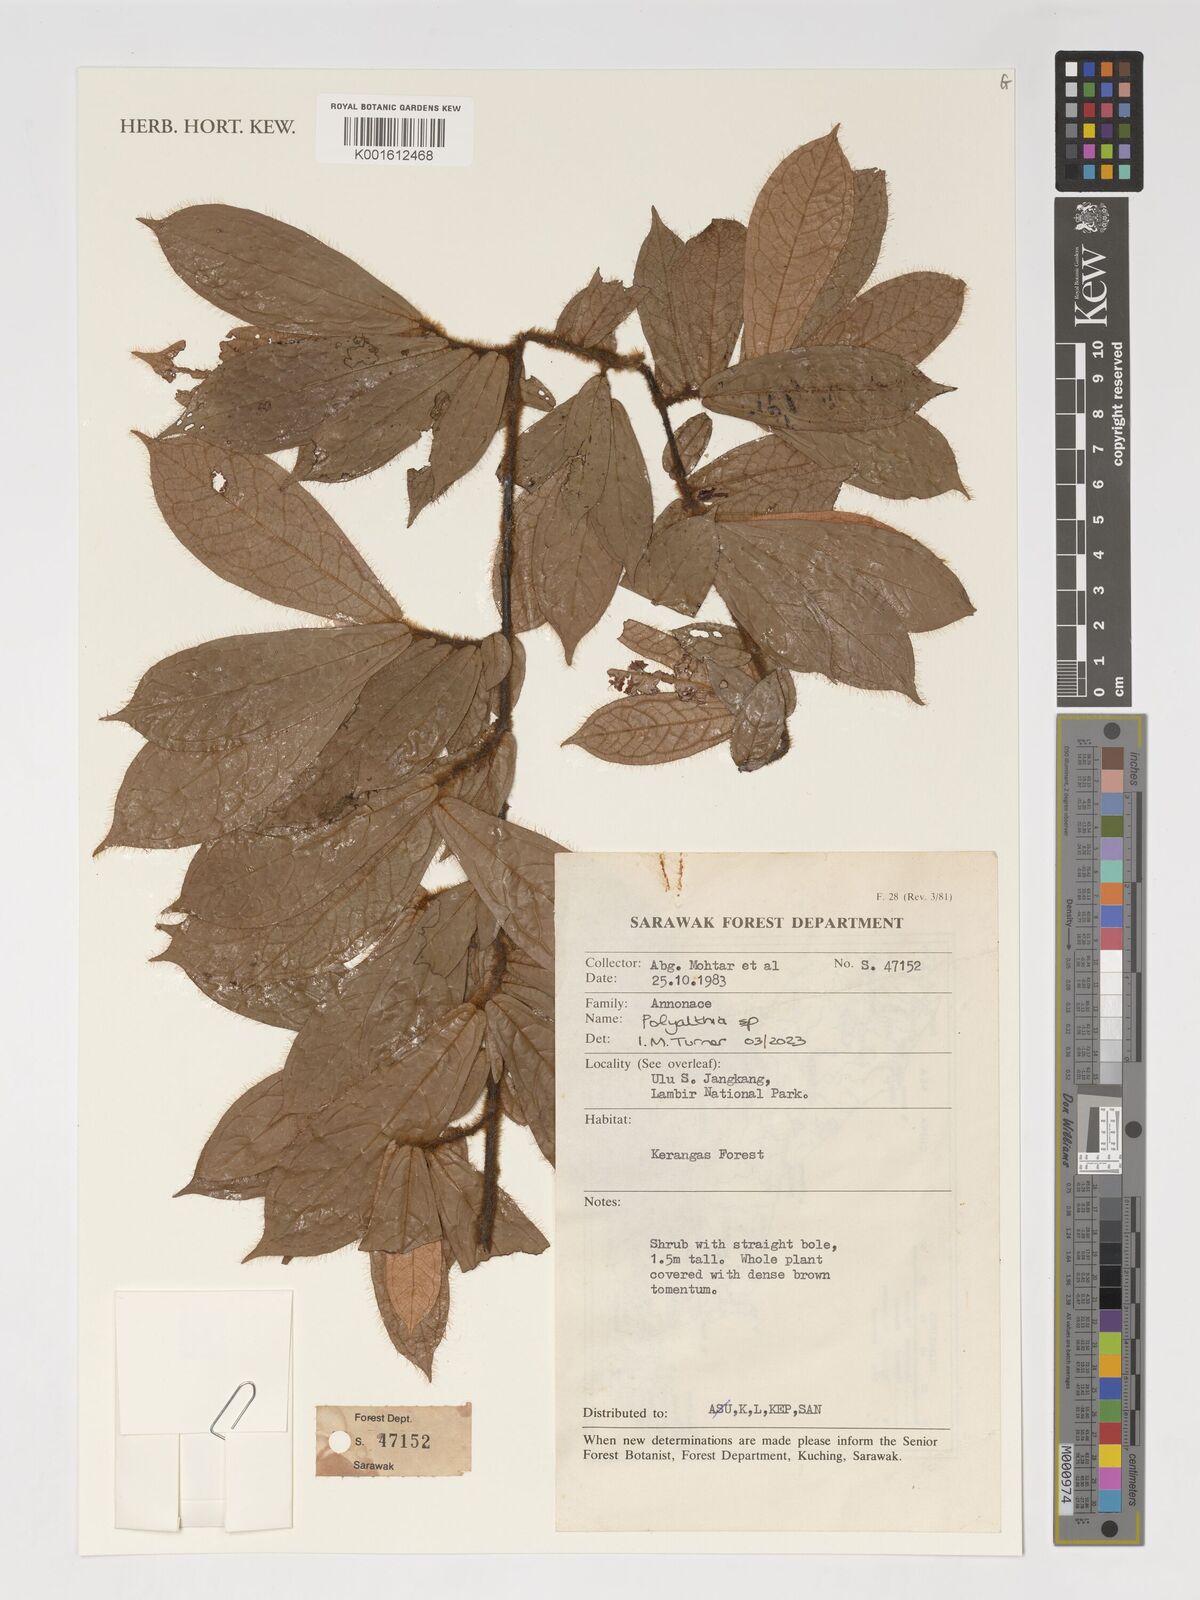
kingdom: Plantae
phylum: Tracheophyta
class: Magnoliopsida
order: Magnoliales
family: Annonaceae
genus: Polyalthia
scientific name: Polyalthia
